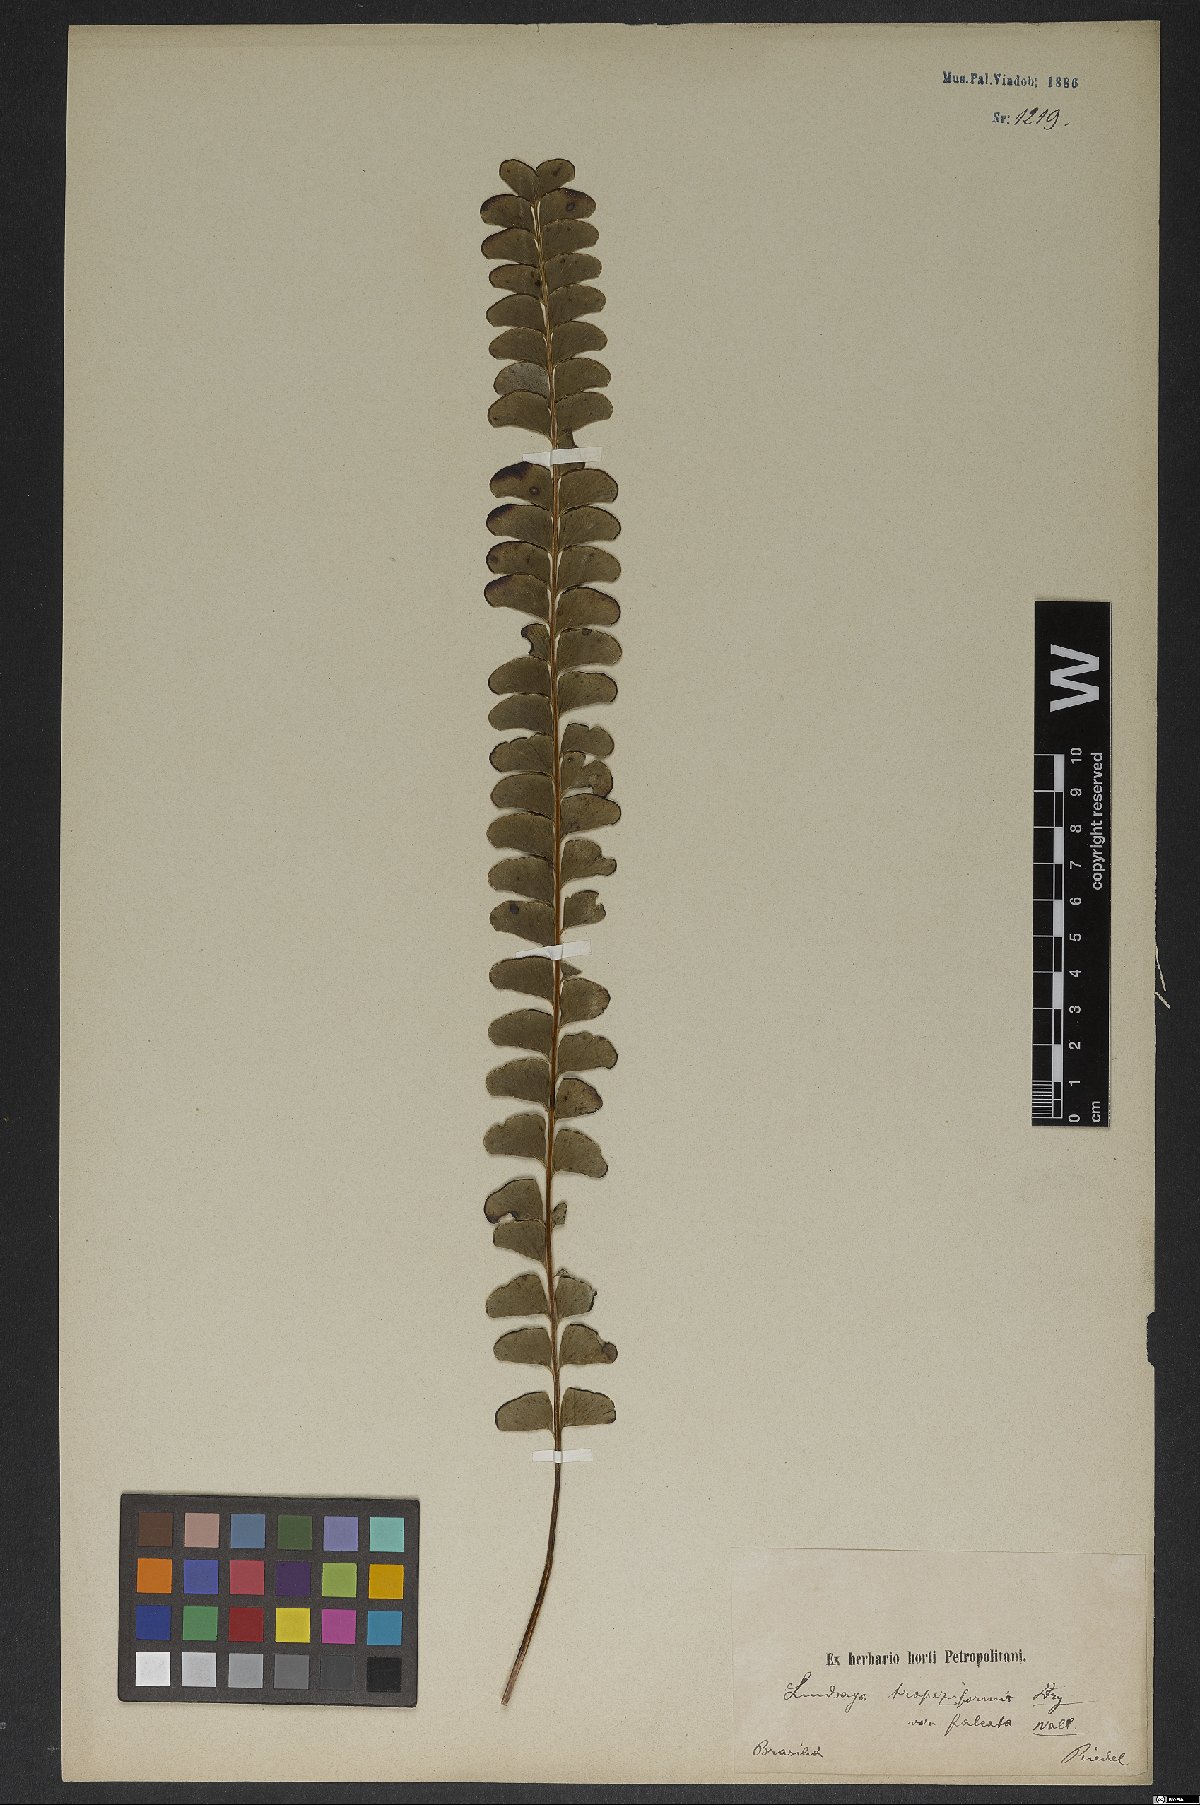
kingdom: Plantae
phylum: Tracheophyta
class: Polypodiopsida
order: Polypodiales
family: Lindsaeaceae
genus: Lindsaea
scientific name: Lindsaea falcata
